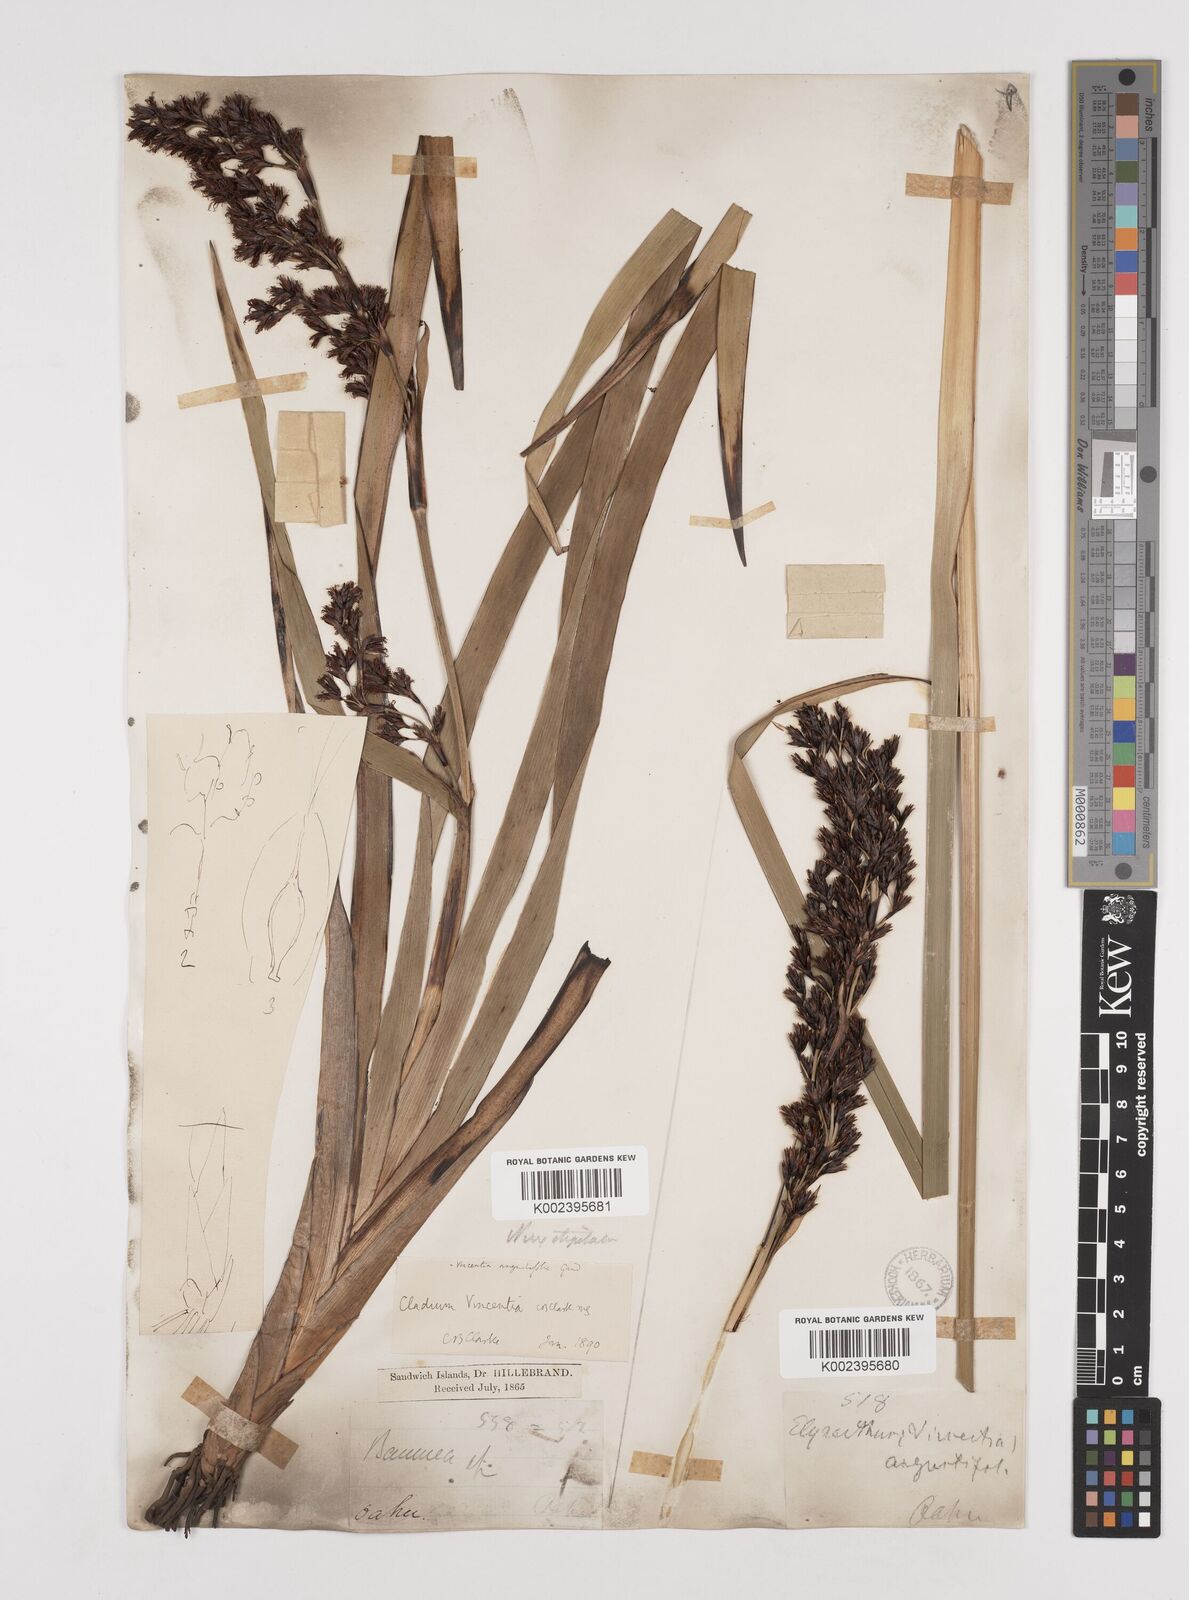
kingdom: Plantae
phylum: Tracheophyta
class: Liliopsida
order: Poales
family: Cyperaceae
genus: Machaerina
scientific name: Machaerina angustifolia
